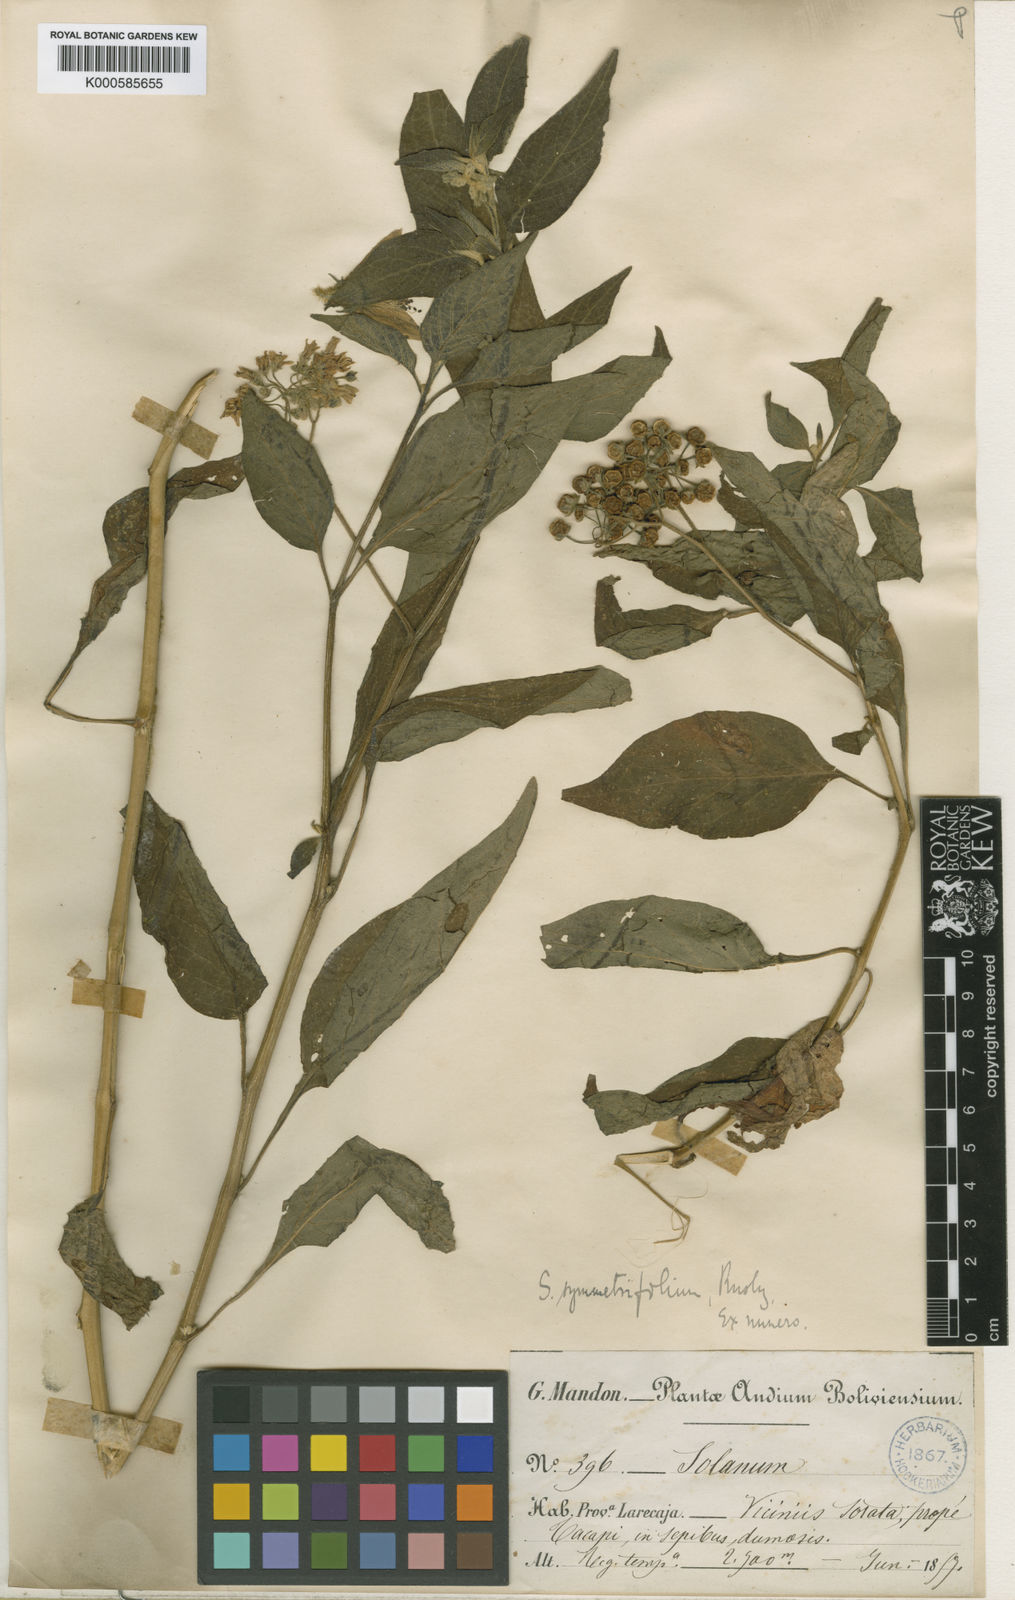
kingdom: Plantae
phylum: Tracheophyta
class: Magnoliopsida
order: Solanales
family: Solanaceae
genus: Solanum
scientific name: Solanum pallidum
